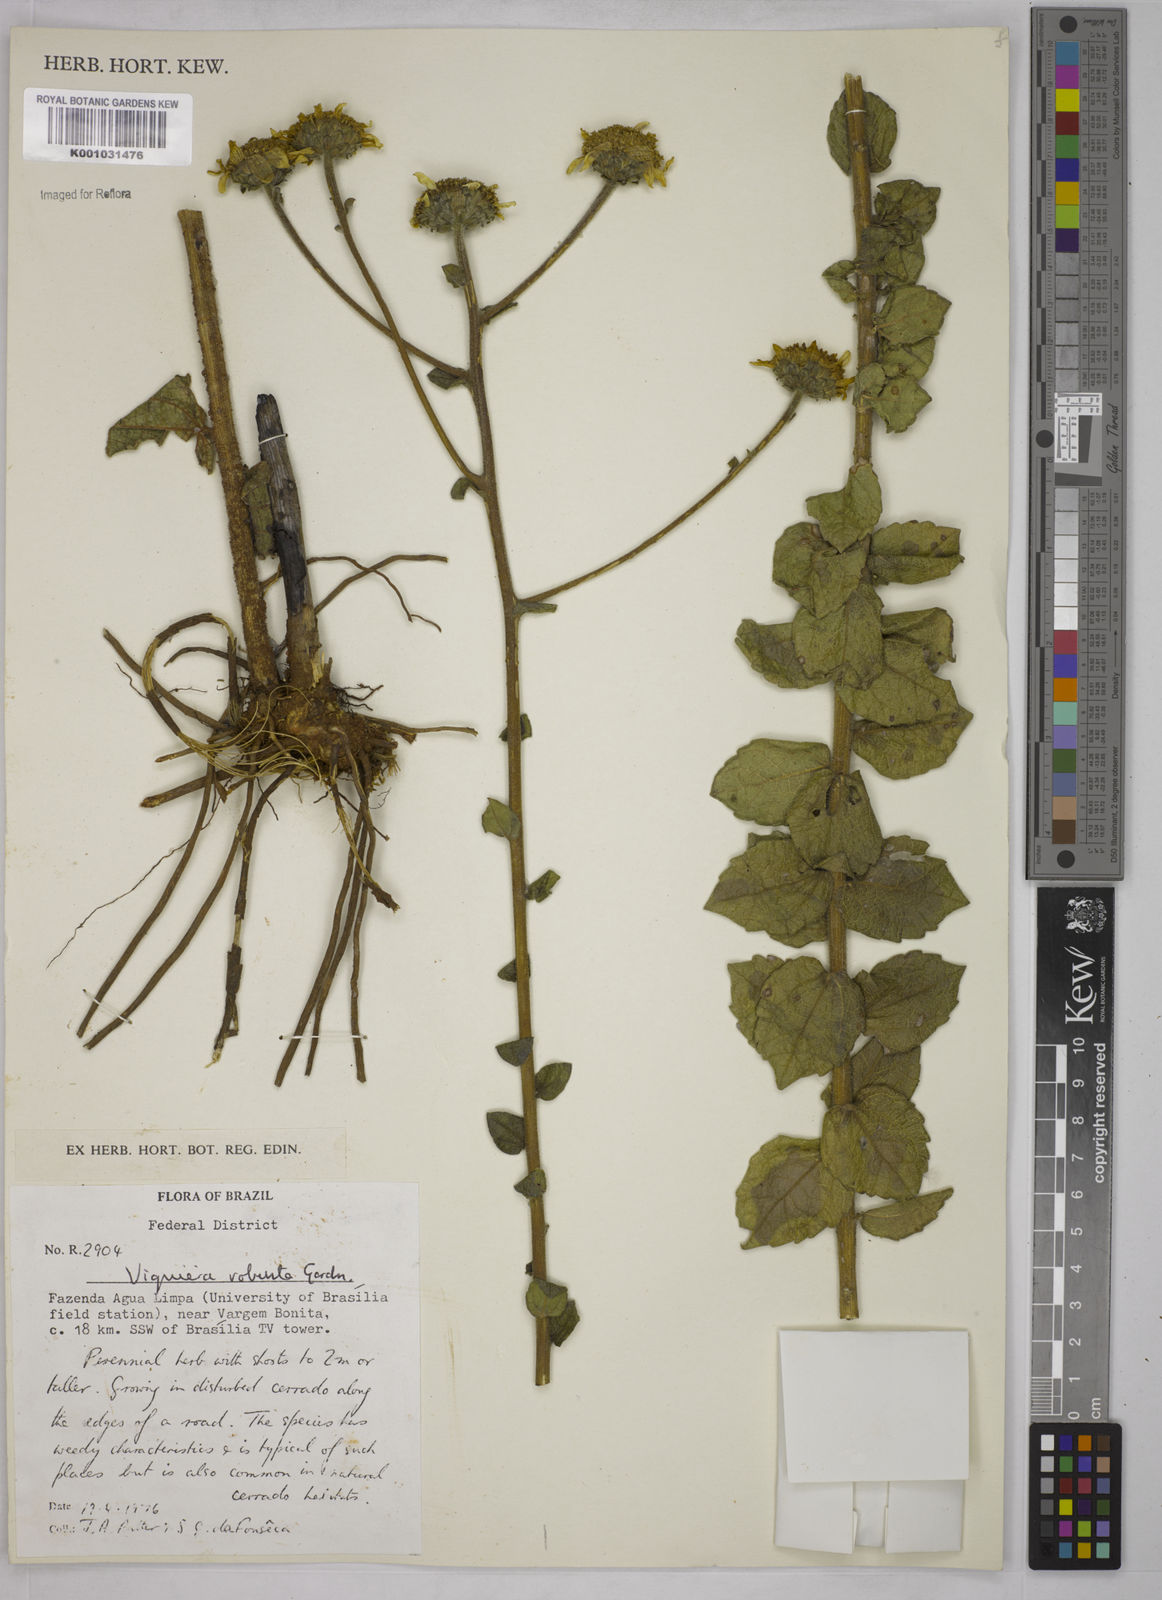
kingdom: Plantae
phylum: Tracheophyta
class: Magnoliopsida
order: Asterales
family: Asteraceae
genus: Aldama
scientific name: Aldama robusta
